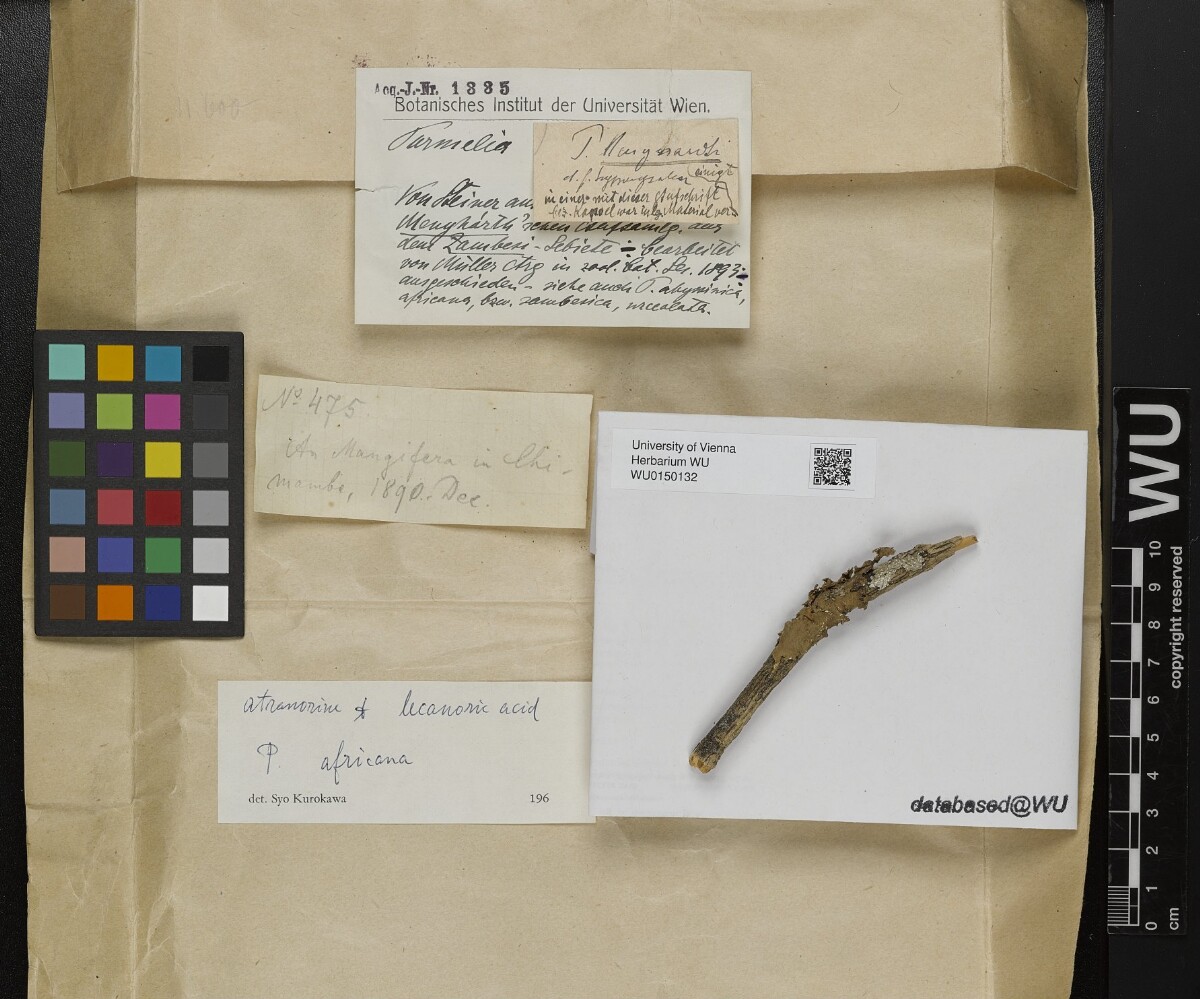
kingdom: Fungi
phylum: Ascomycota
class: Lecanoromycetes
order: Lecanorales
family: Parmeliaceae
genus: Parmotrema
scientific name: Parmotrema andinum
